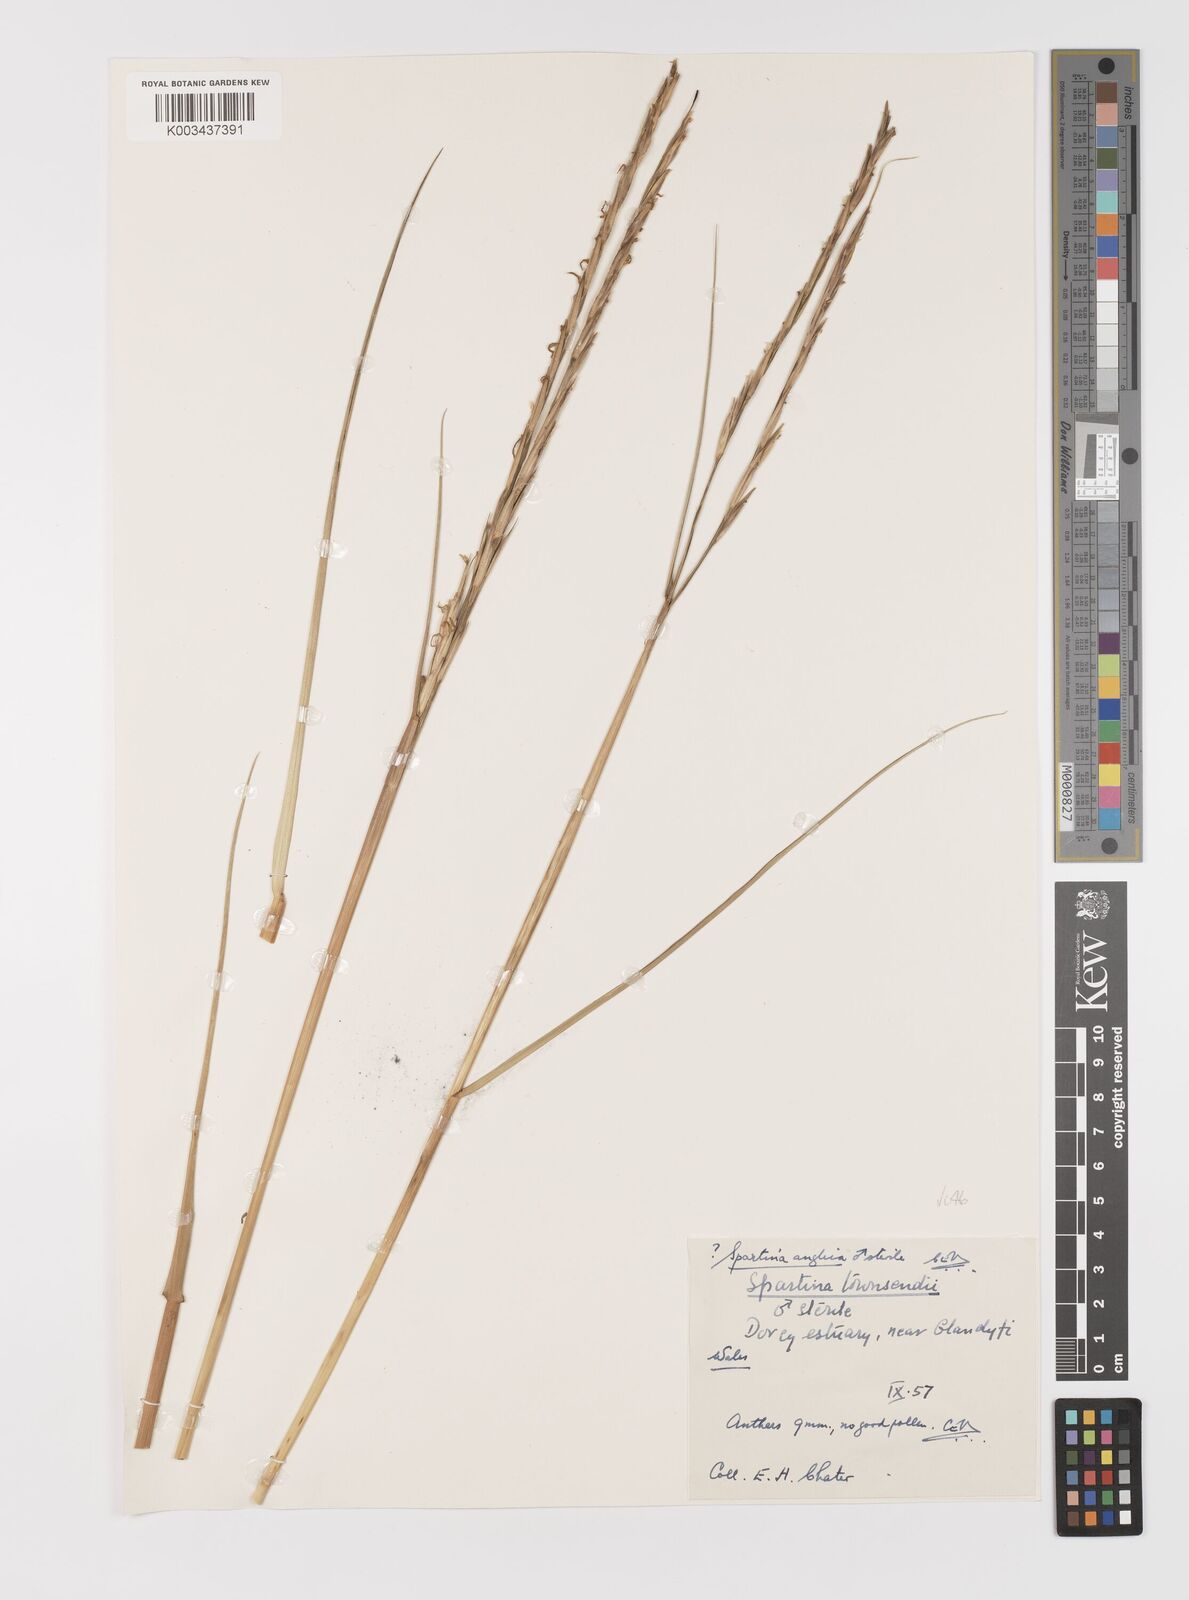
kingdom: Plantae
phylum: Tracheophyta
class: Liliopsida
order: Poales
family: Poaceae
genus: Sporobolus
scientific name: Sporobolus anglicus
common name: English cordgrass
